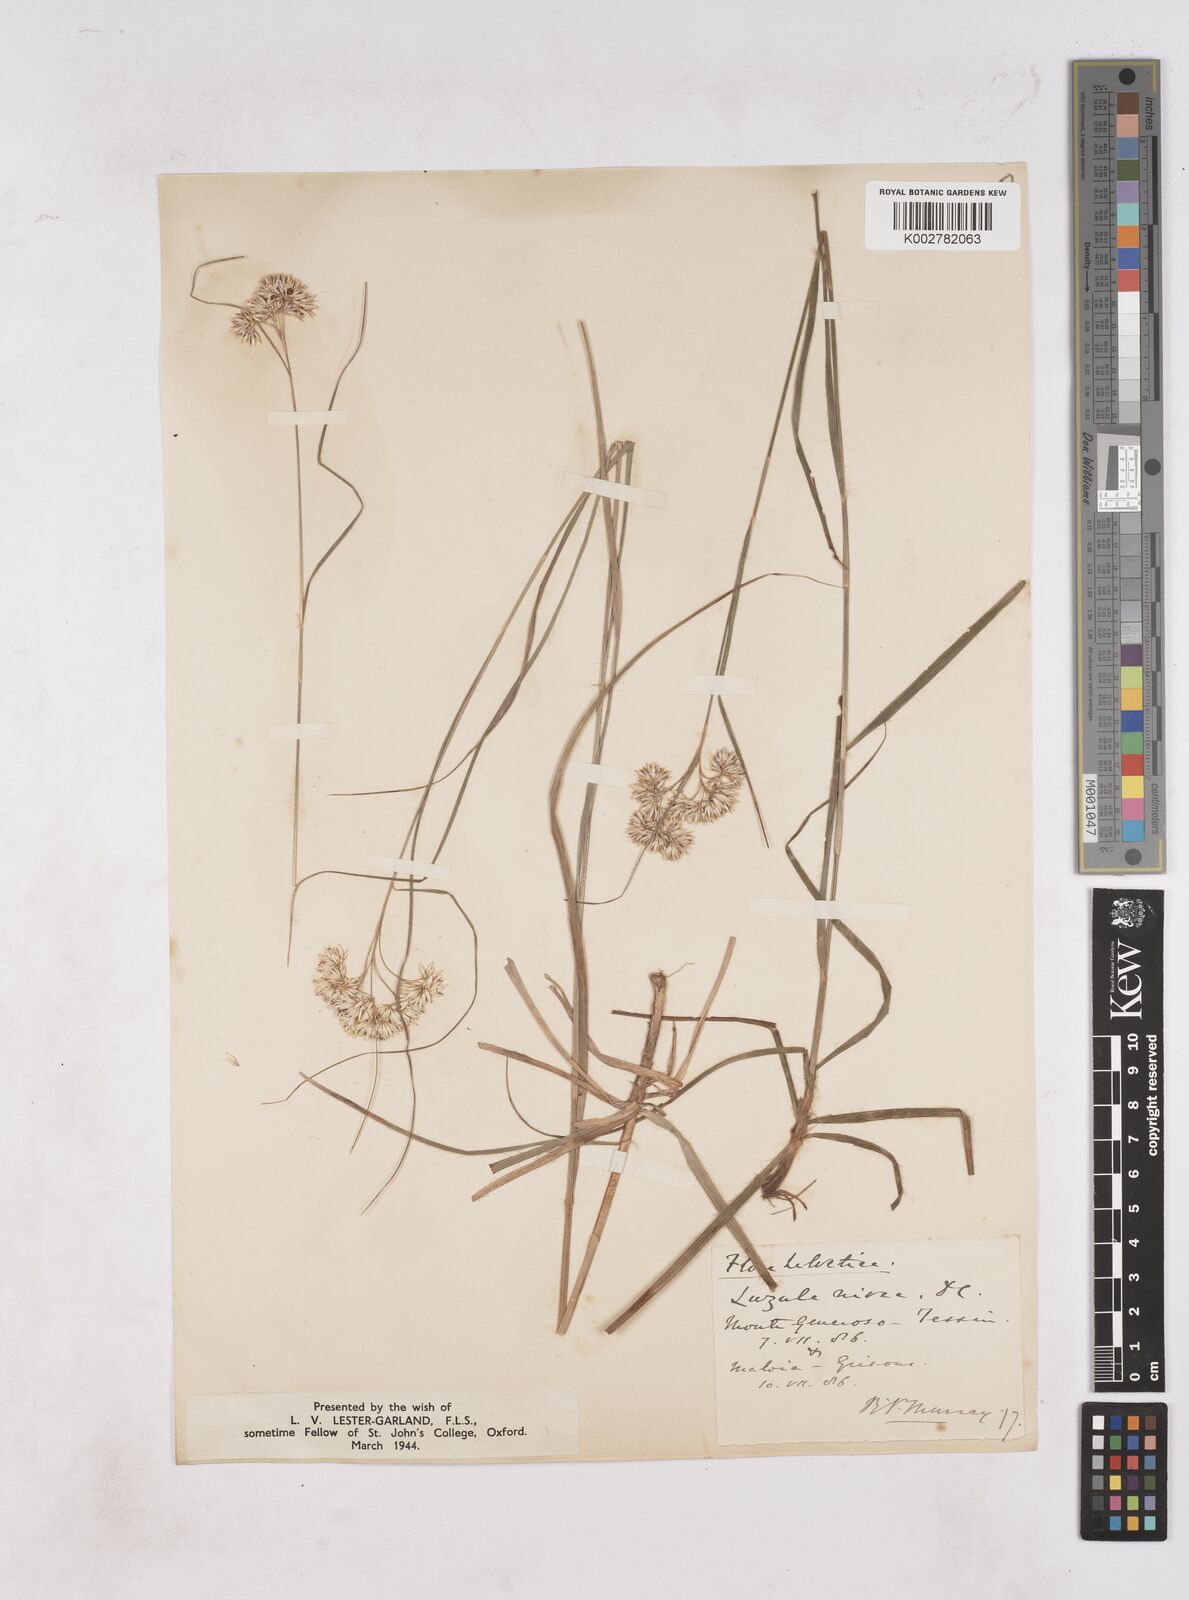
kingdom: Plantae
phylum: Tracheophyta
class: Liliopsida
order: Poales
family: Juncaceae
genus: Luzula
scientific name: Luzula nivea
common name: Snow-white wood-rush
